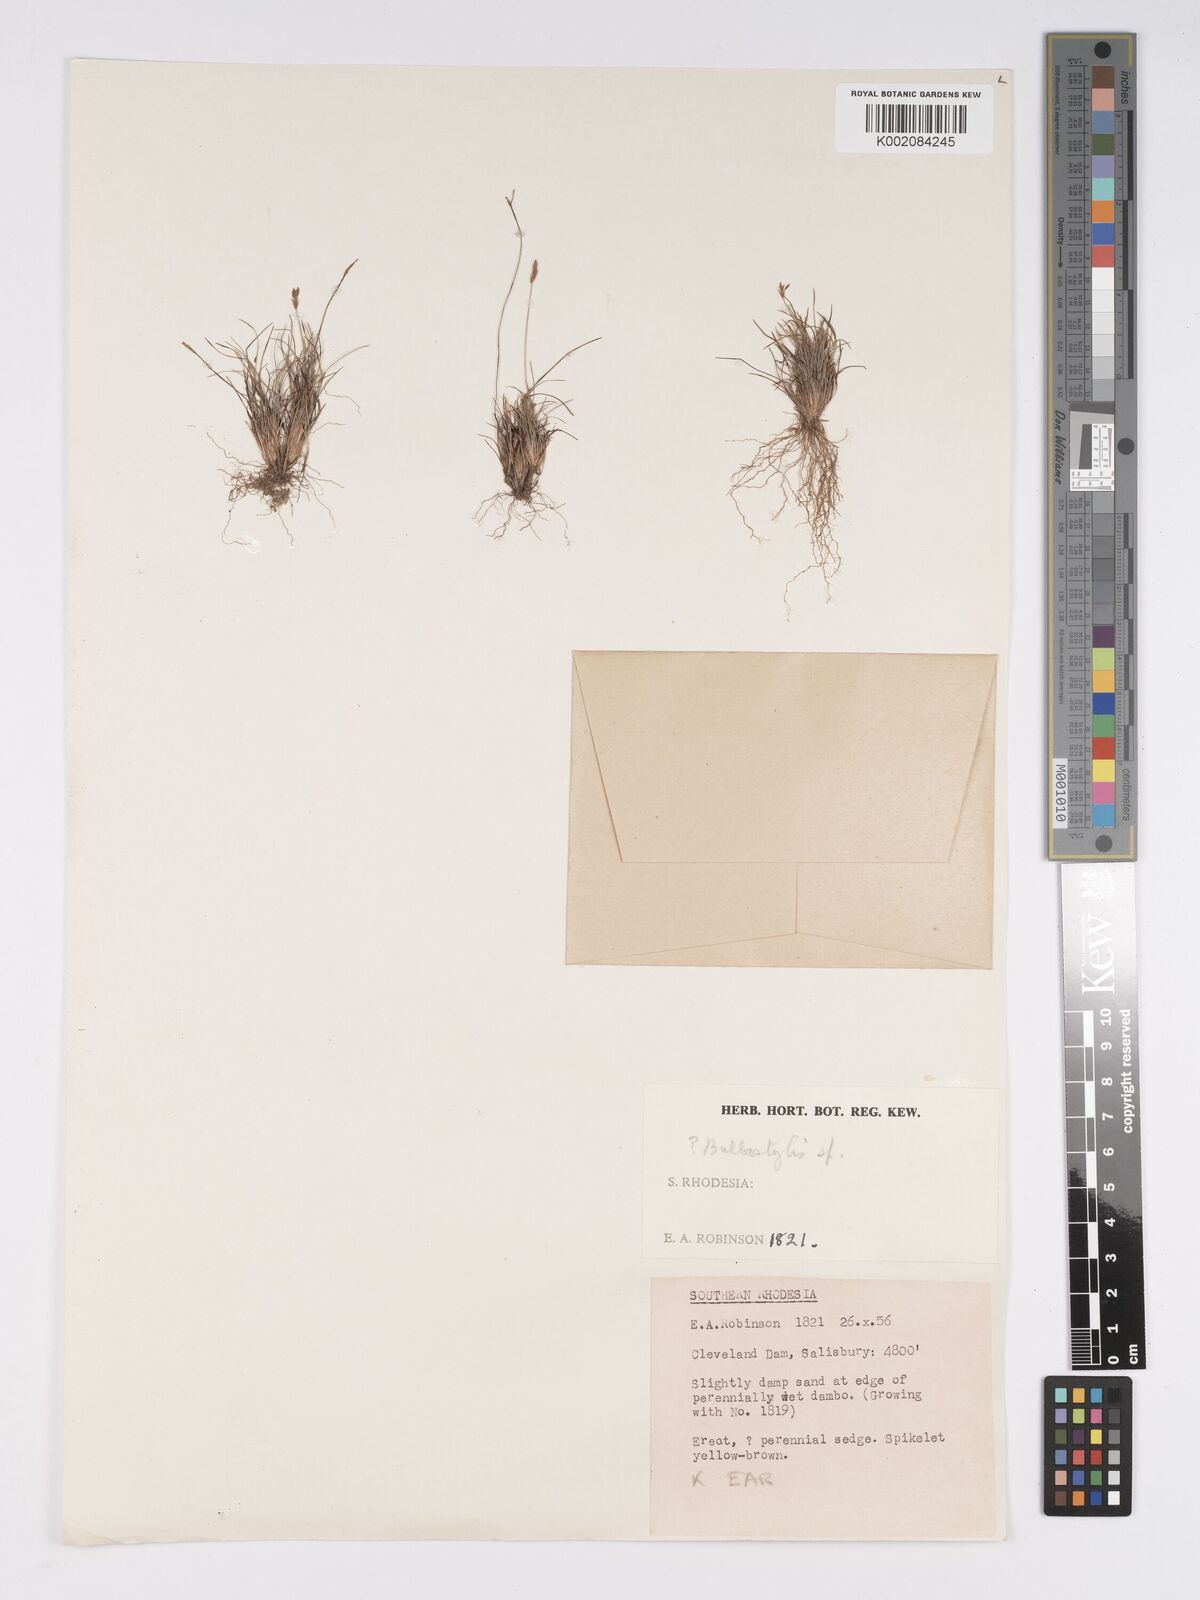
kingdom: Plantae
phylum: Tracheophyta
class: Liliopsida
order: Poales
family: Cyperaceae
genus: Bulbostylis
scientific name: Bulbostylis
